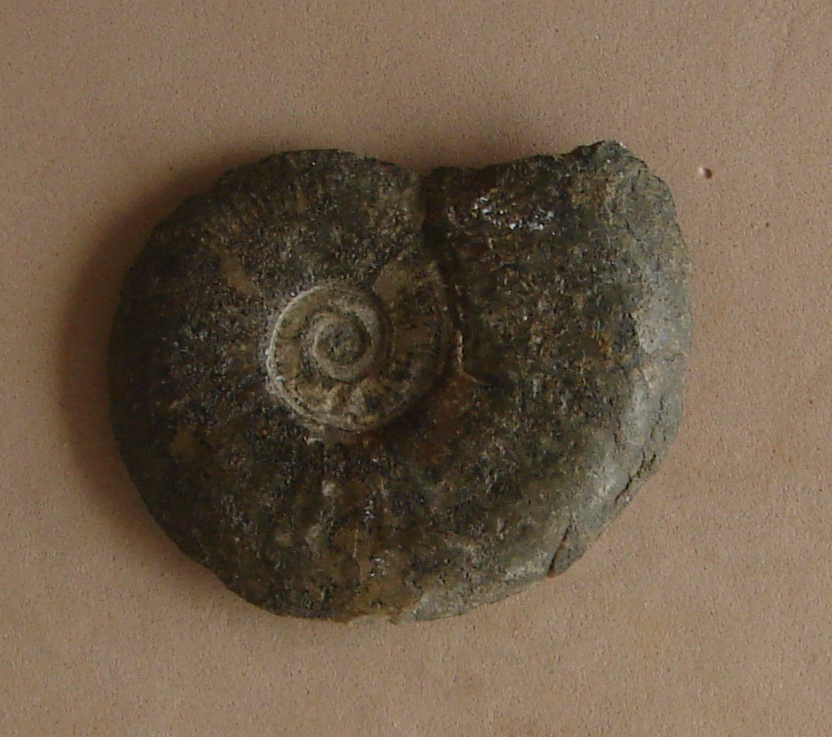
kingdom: Animalia
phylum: Mollusca
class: Cephalopoda
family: Hildoceratidae
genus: Pleydellia
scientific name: Pleydellia Cotteswoldia subcompta
